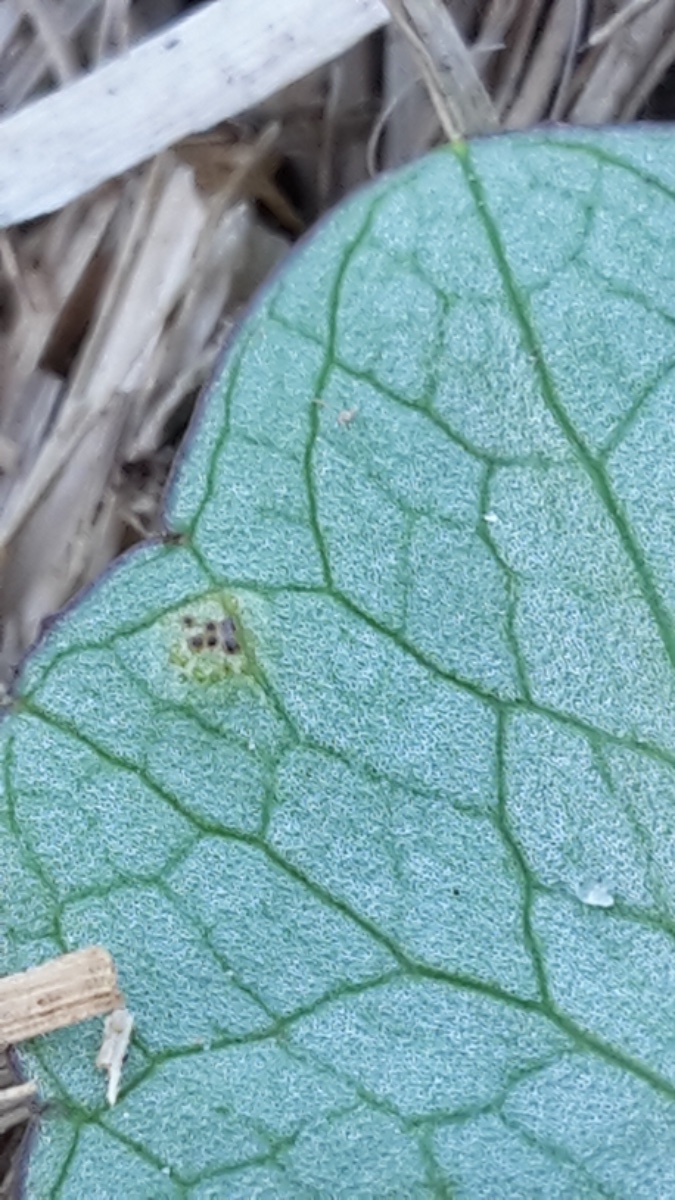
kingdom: Fungi
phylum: Basidiomycota
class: Pucciniomycetes
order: Pucciniales
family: Pucciniaceae
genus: Uromyces
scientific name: Uromyces ficariae
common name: vorterod-encellerust
